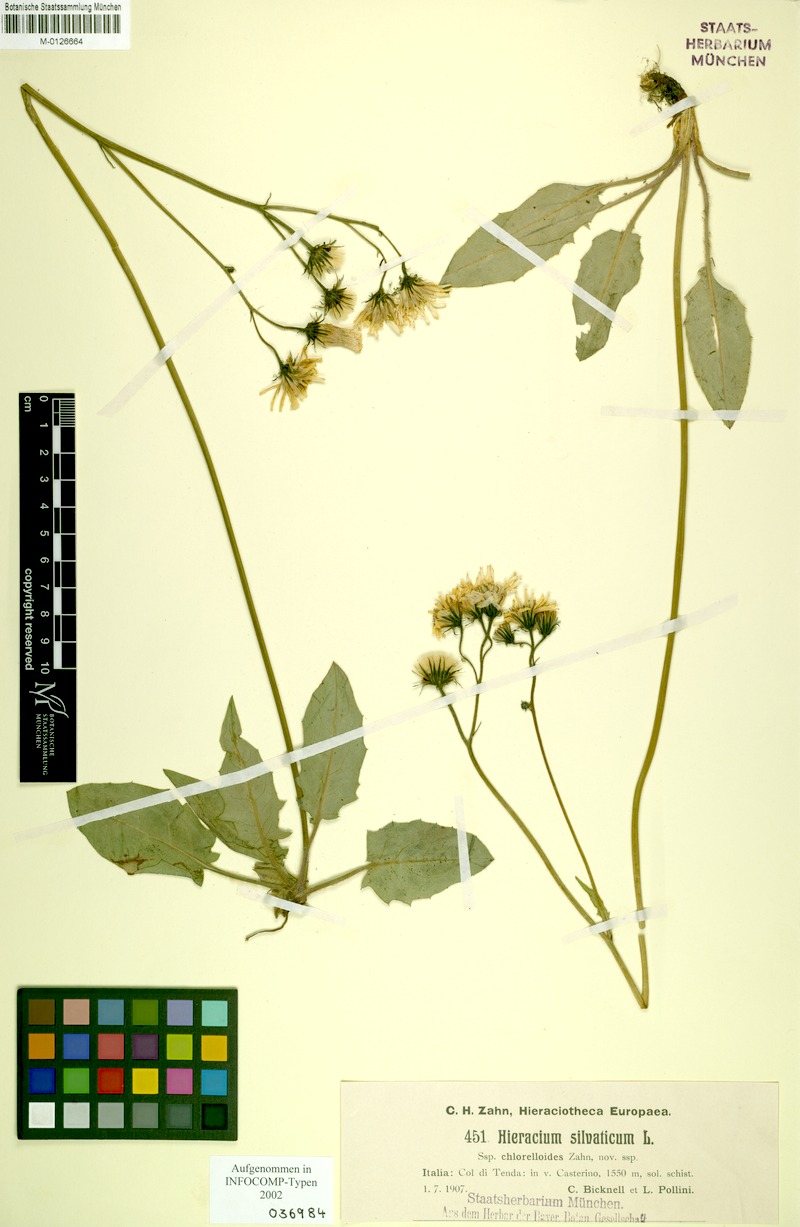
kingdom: Plantae
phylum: Tracheophyta
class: Magnoliopsida
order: Asterales
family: Asteraceae
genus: Hieracium
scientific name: Hieracium chlorelloides
